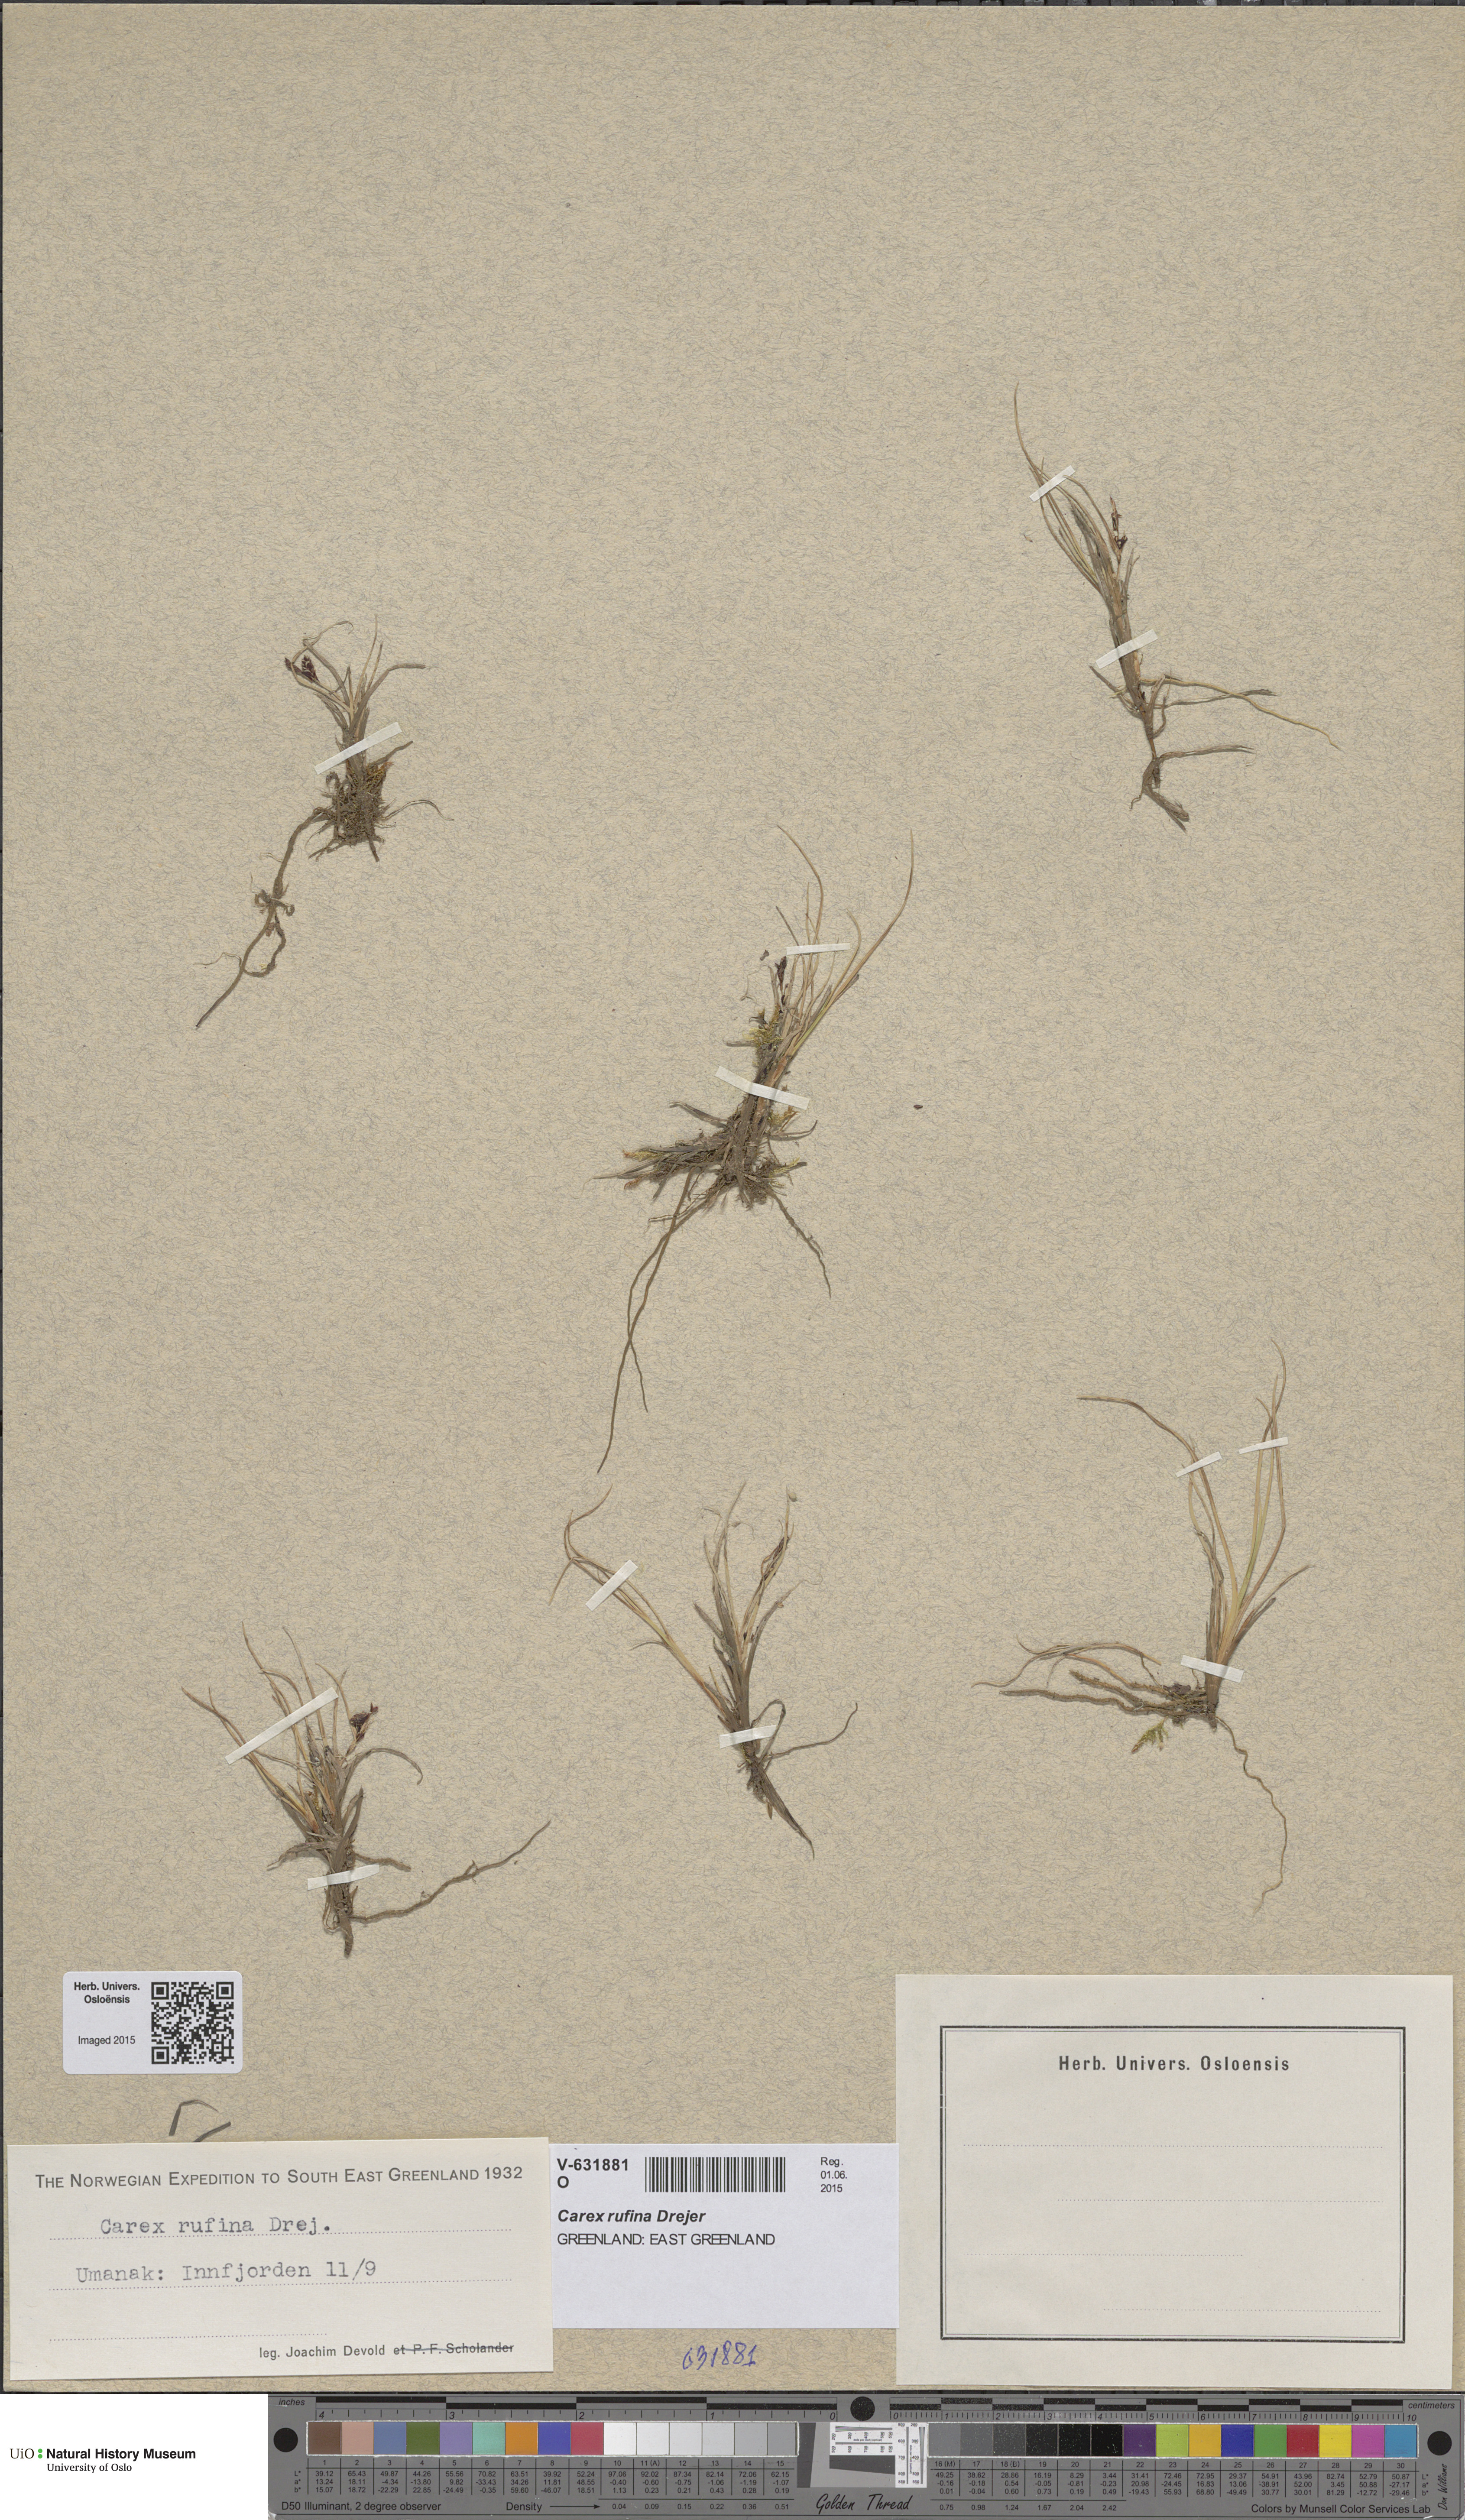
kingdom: Plantae
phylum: Tracheophyta
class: Liliopsida
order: Poales
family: Cyperaceae
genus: Carex
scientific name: Carex rufina
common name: Reddish sedge
